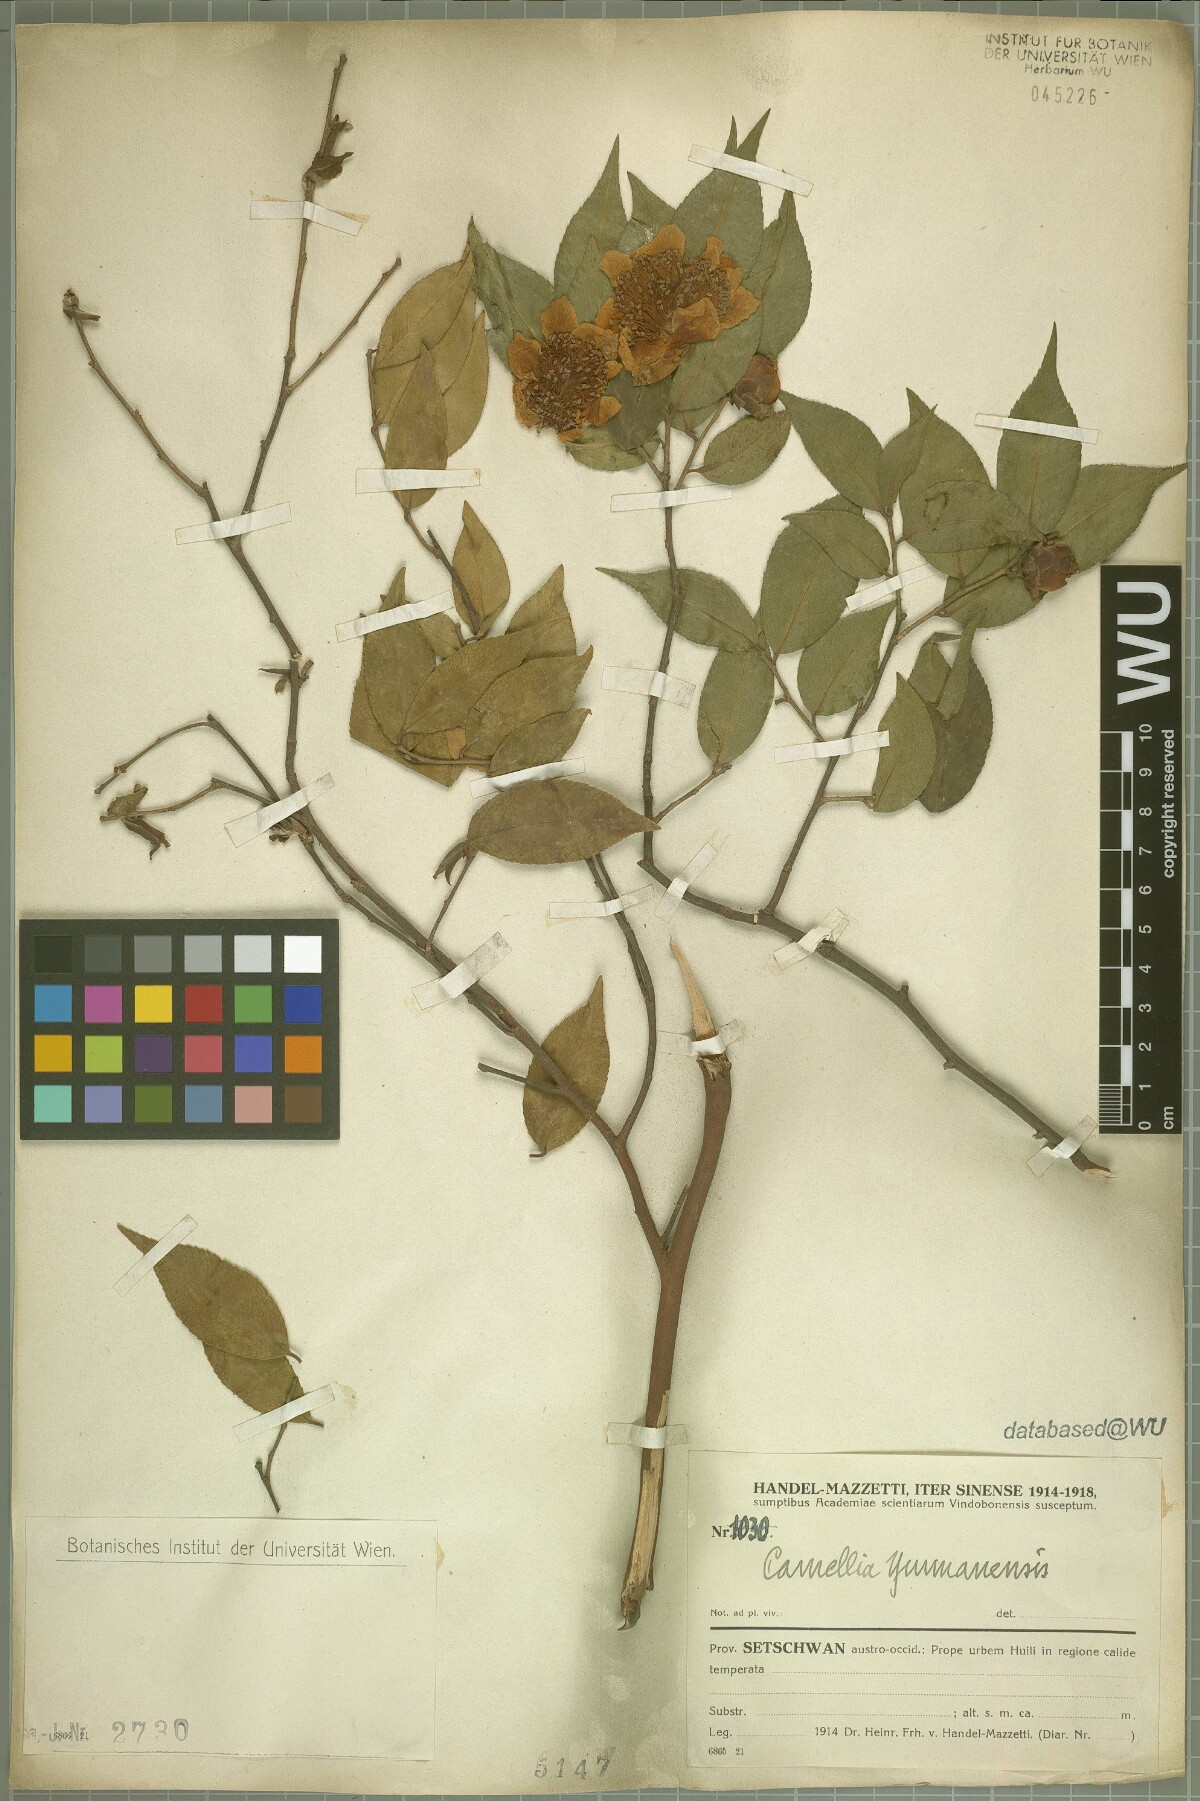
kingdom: Plantae
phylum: Tracheophyta
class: Magnoliopsida
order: Ericales
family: Theaceae
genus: Camellia
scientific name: Camellia yunnanensis
